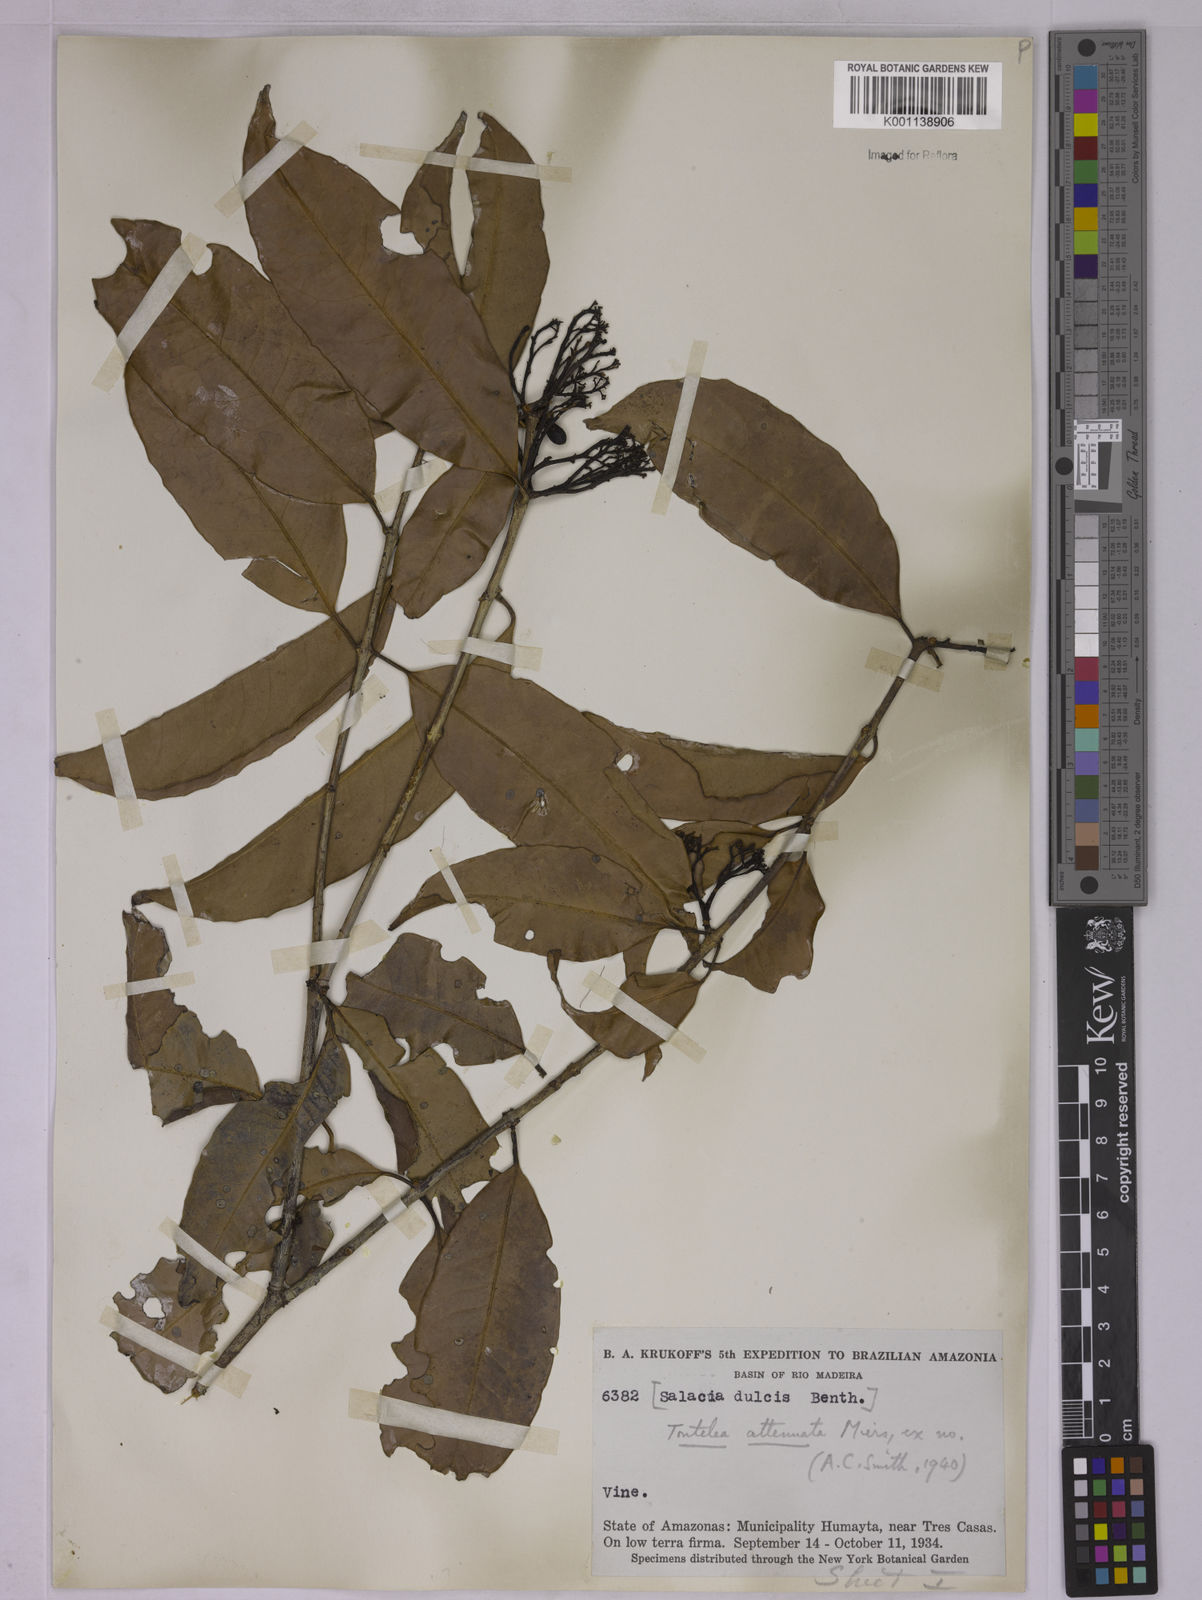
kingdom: Plantae
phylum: Tracheophyta
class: Magnoliopsida
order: Celastrales
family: Celastraceae
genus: Tontelea
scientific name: Tontelea attenuata
